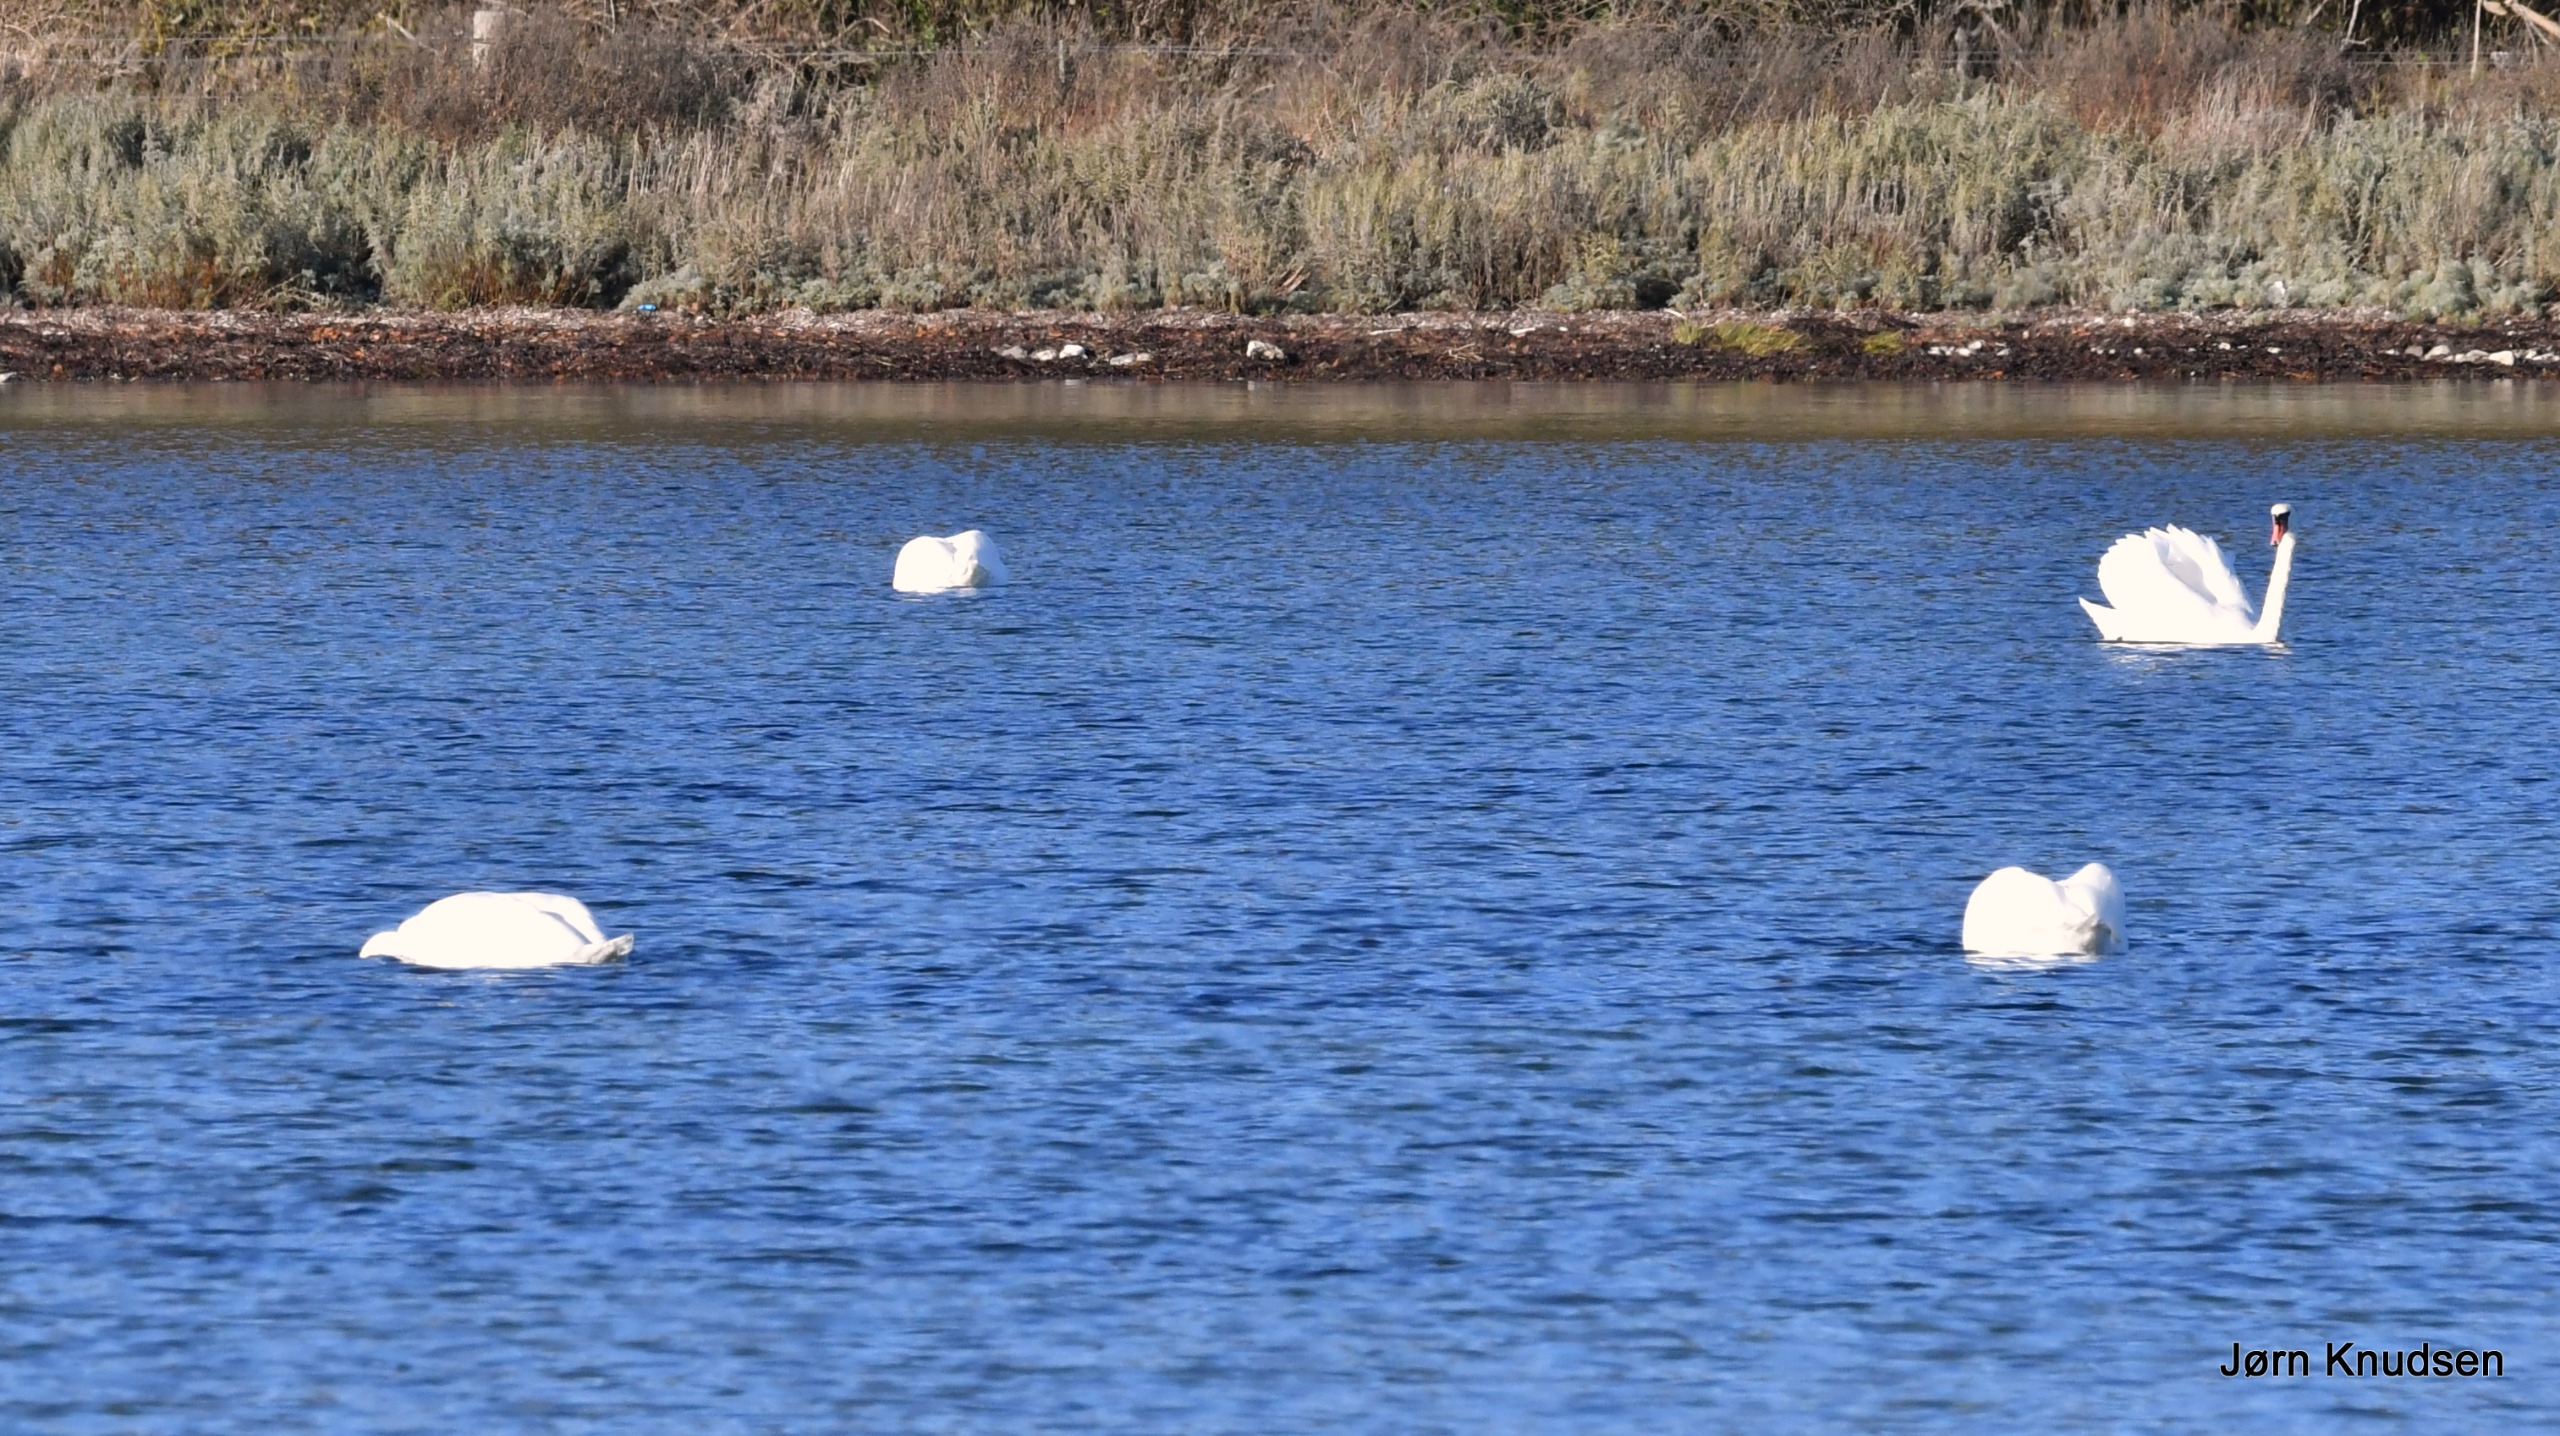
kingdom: Animalia
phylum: Chordata
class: Aves
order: Anseriformes
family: Anatidae
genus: Cygnus
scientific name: Cygnus olor
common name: Knopsvane
